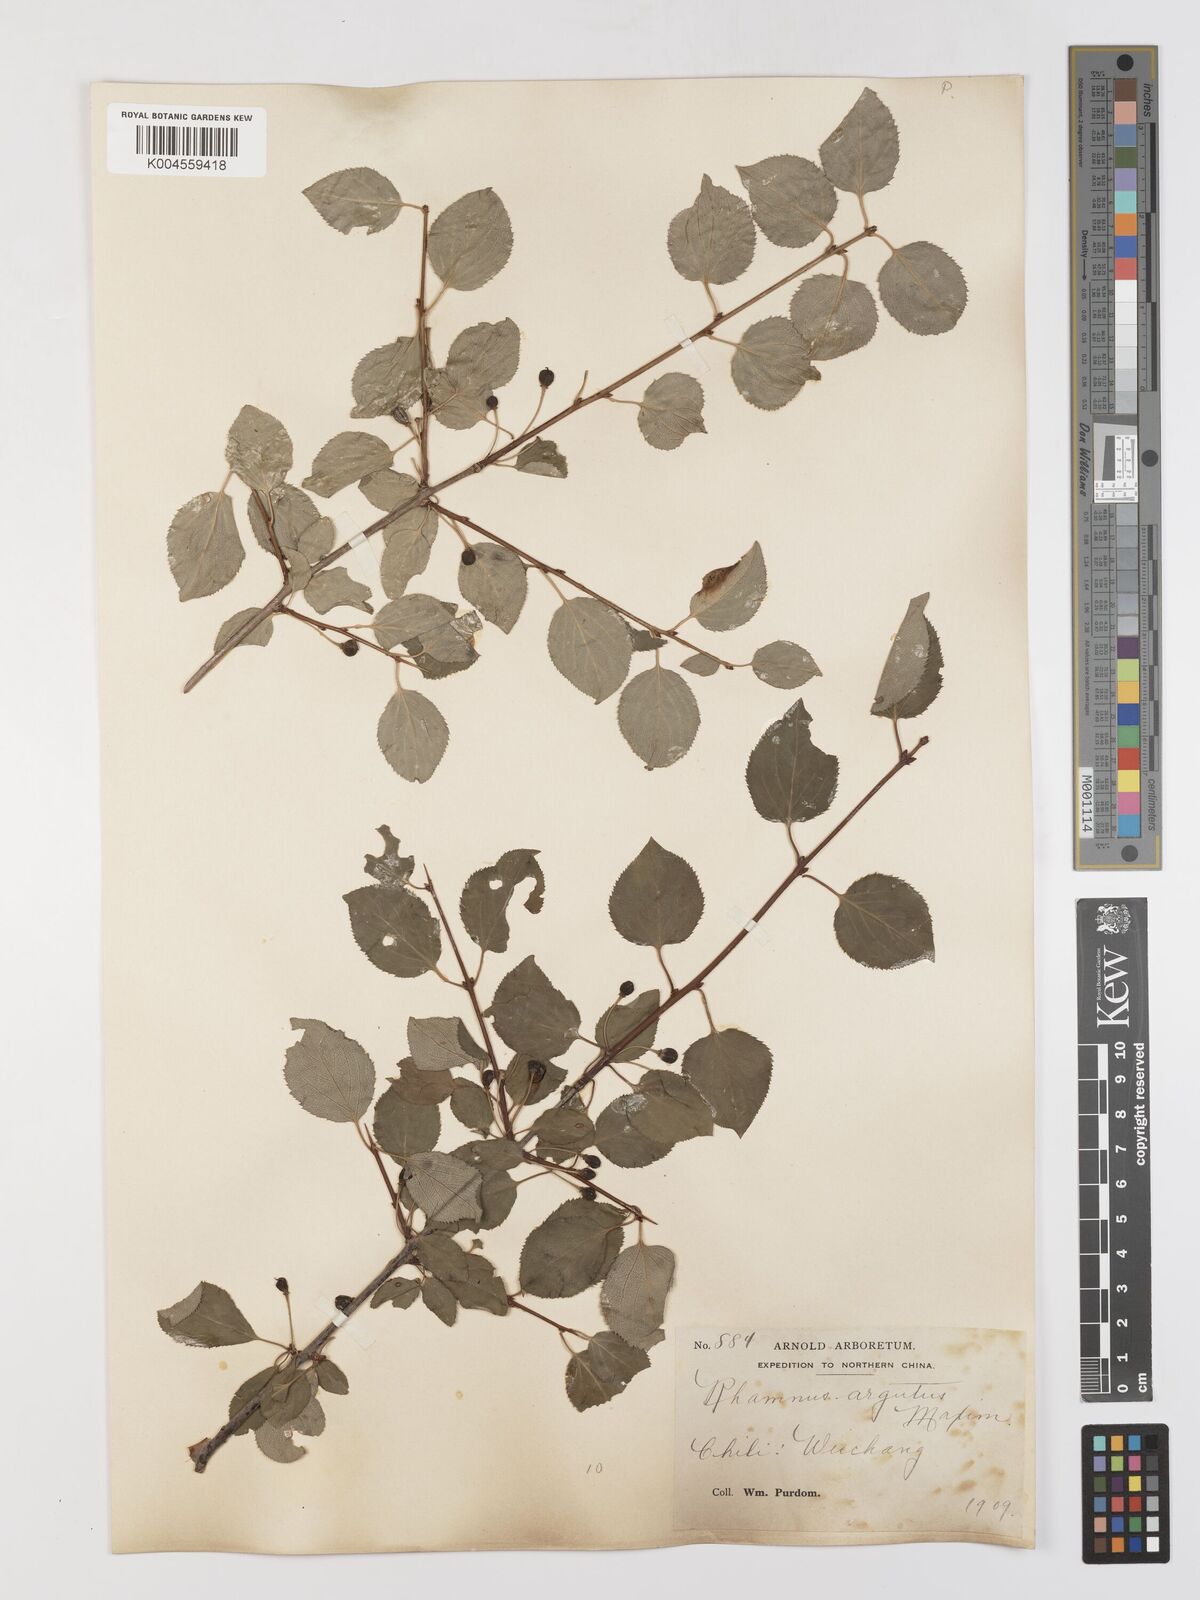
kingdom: Plantae
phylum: Tracheophyta
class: Magnoliopsida
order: Rosales
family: Rhamnaceae
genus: Rhamnus
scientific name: Rhamnus arguta
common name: Sharp-tooth buckthorn
